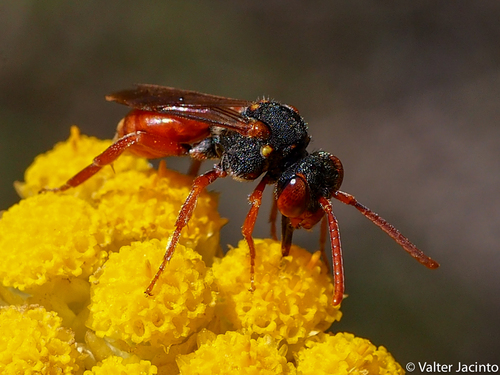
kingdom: Animalia
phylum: Arthropoda
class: Insecta
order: Hymenoptera
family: Apidae
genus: Nomada
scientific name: Nomada basalis
